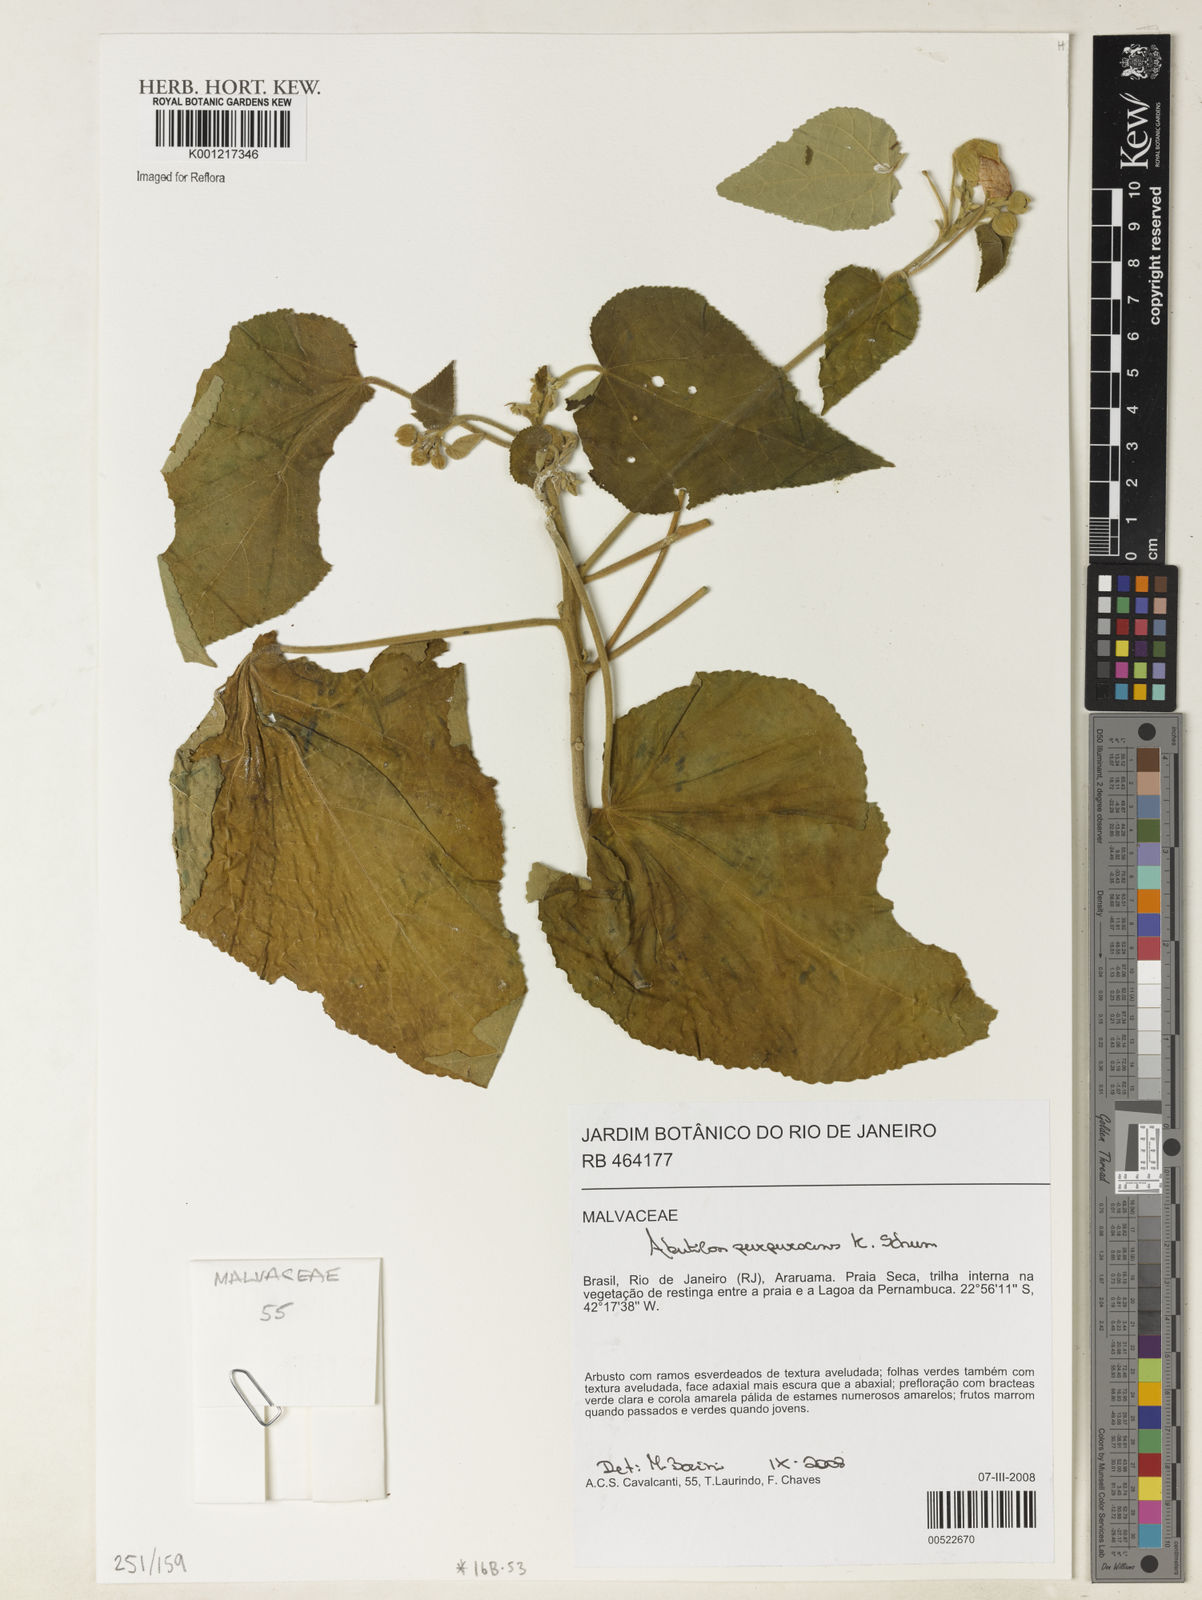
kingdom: Plantae
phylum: Tracheophyta
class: Magnoliopsida
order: Malvales
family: Malvaceae
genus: Bakeridesia
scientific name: Bakeridesia esculenta
